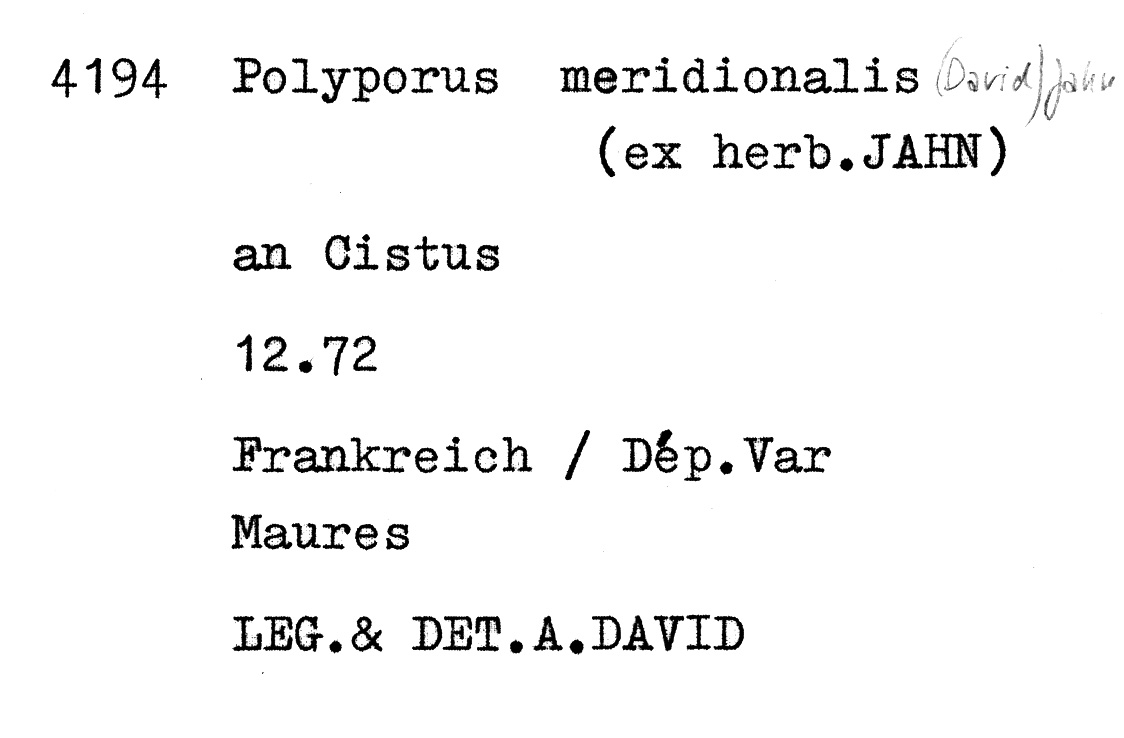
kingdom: Fungi
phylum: Basidiomycota
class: Agaricomycetes
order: Polyporales
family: Polyporaceae
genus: Cerioporus
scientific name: Cerioporus meridionalis
